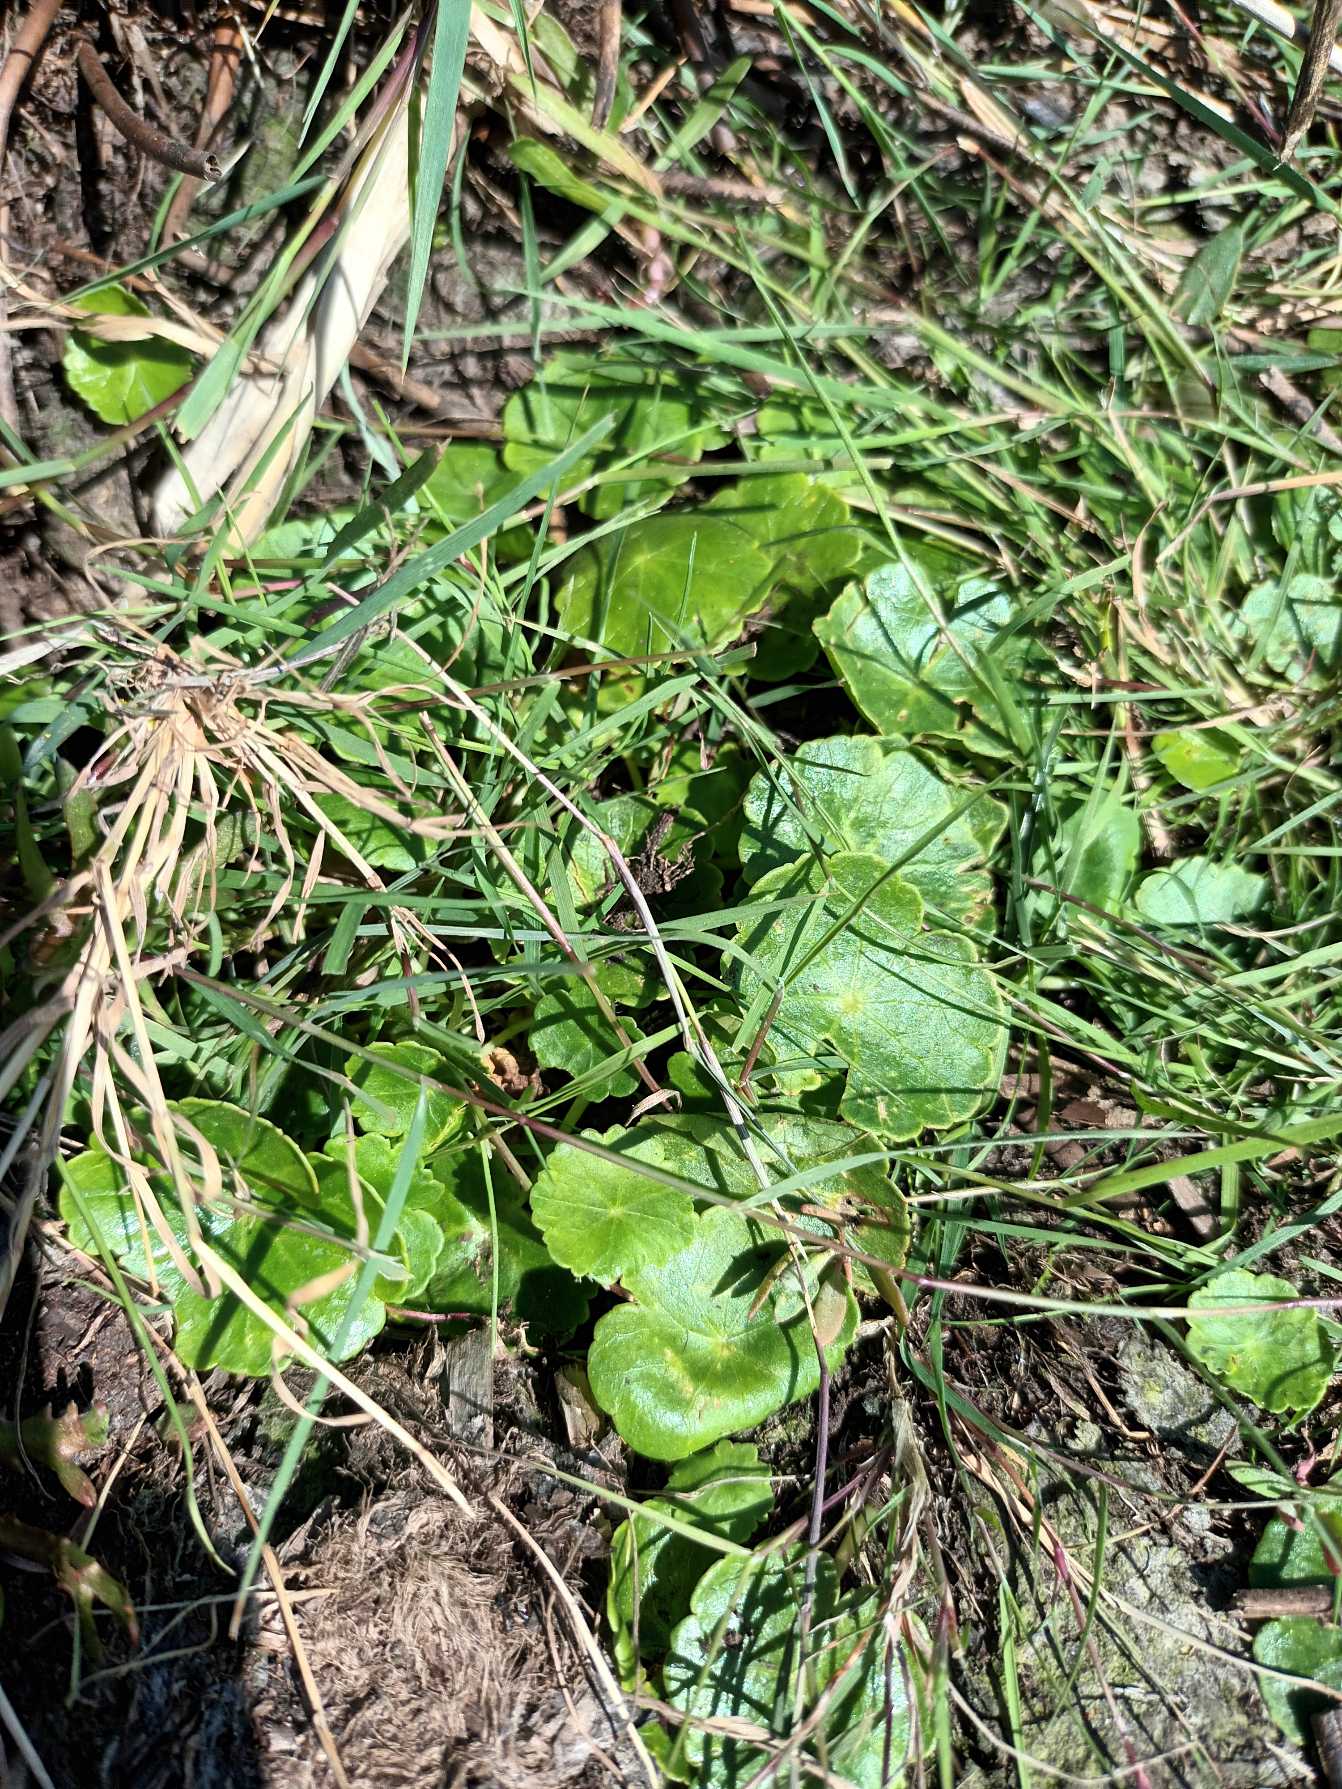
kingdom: Plantae
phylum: Tracheophyta
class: Magnoliopsida
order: Apiales
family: Araliaceae
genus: Hydrocotyle
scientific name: Hydrocotyle vulgaris
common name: Vandnavle
